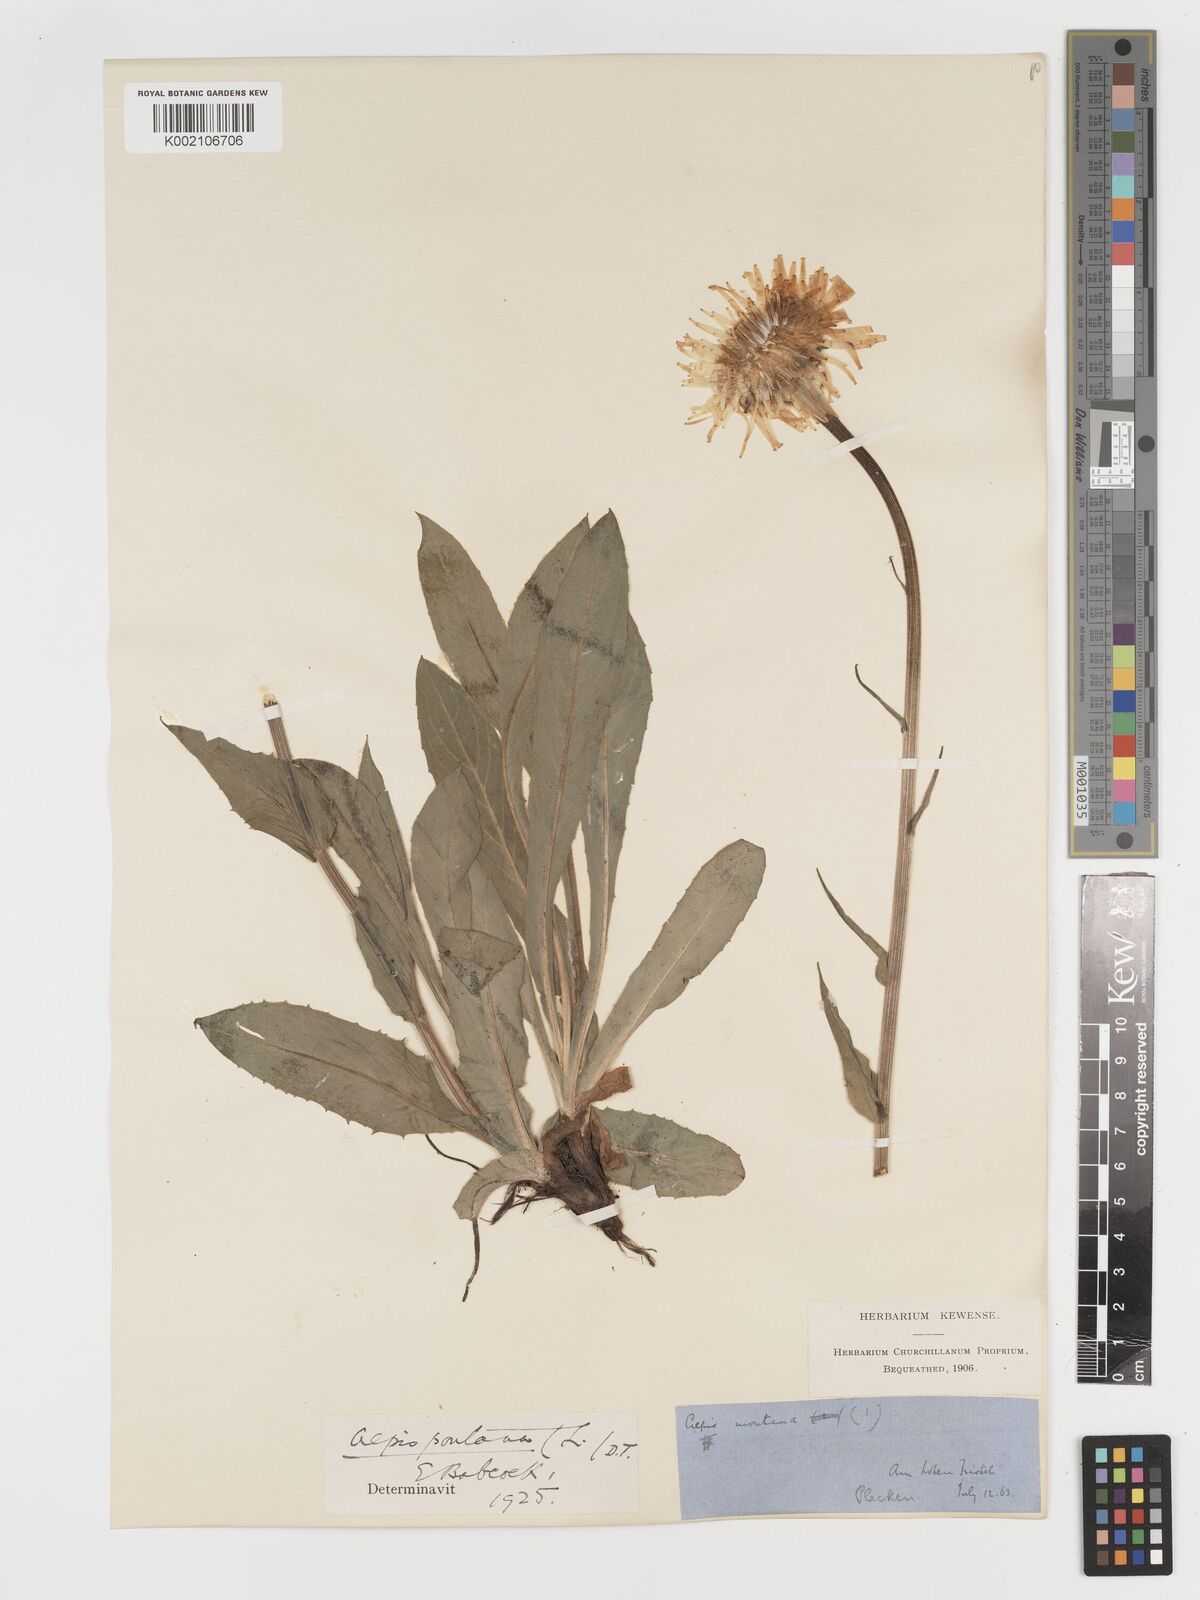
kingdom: Plantae
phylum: Tracheophyta
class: Magnoliopsida
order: Asterales
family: Asteraceae
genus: Crepis
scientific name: Crepis pontana
